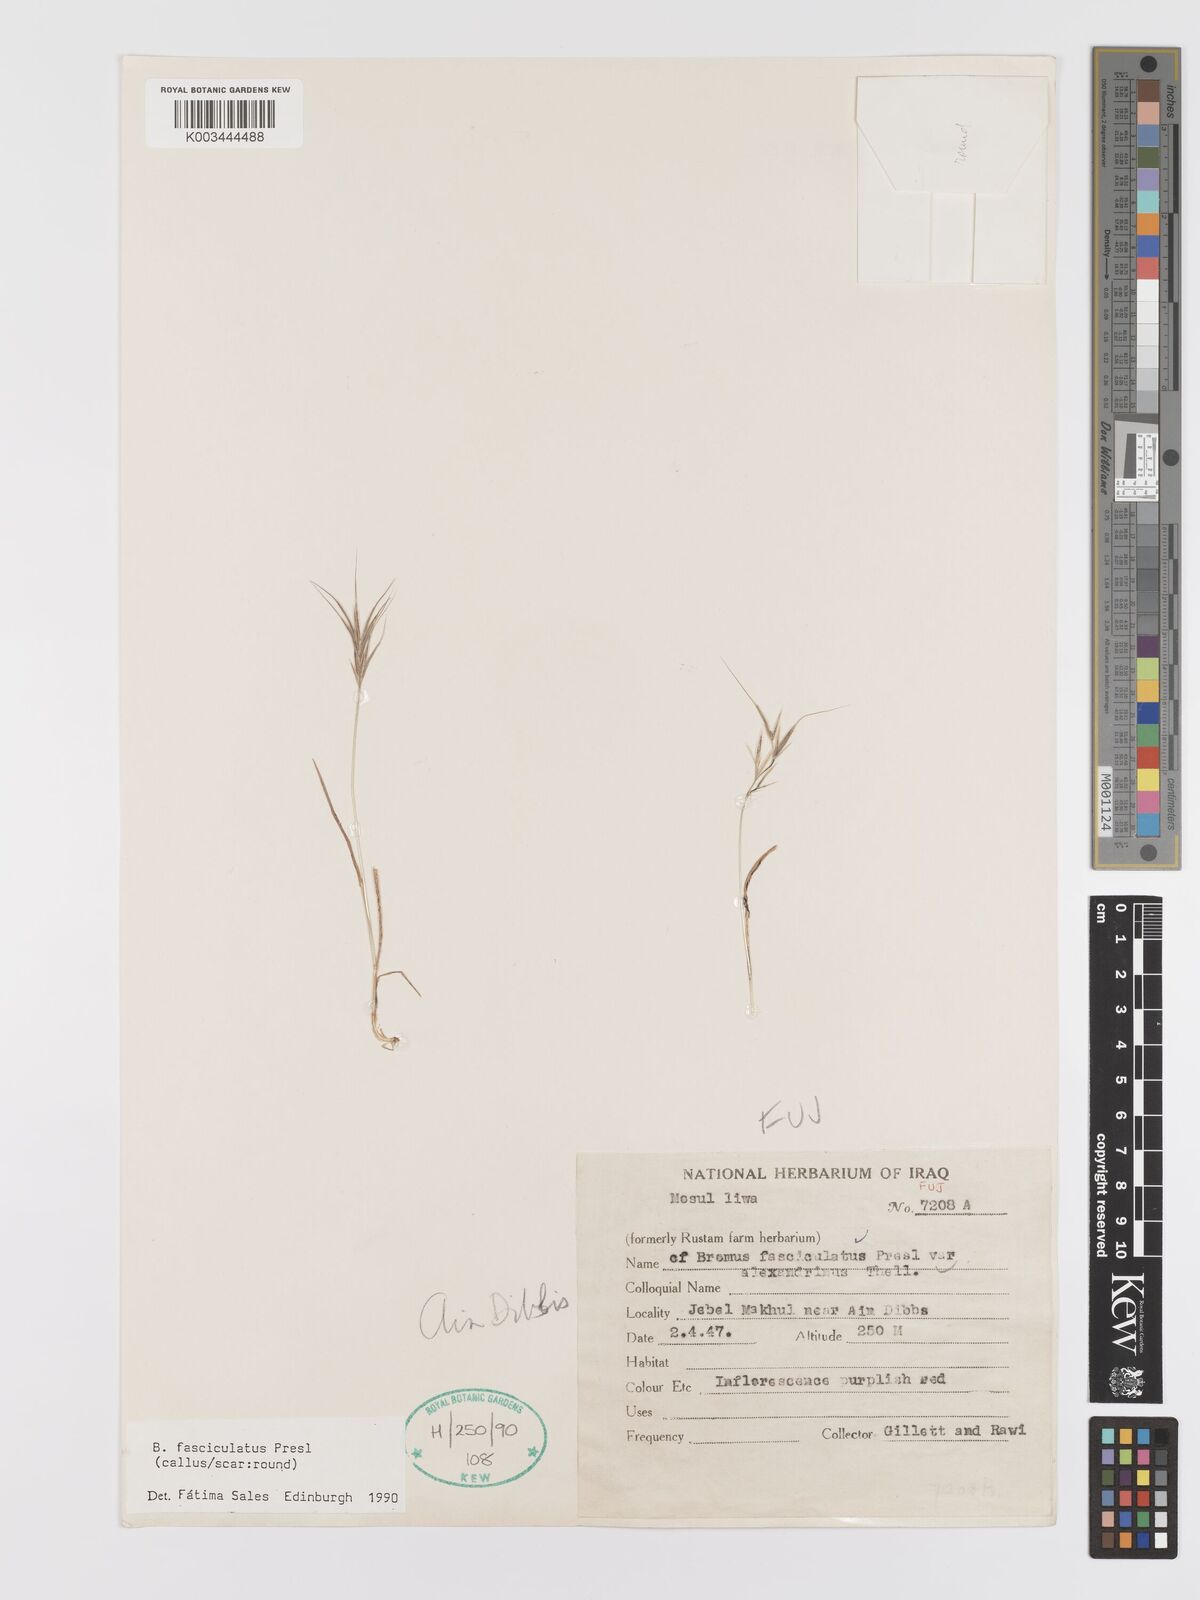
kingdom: Plantae
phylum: Tracheophyta
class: Liliopsida
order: Poales
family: Poaceae
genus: Bromus
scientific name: Bromus fasciculatus
